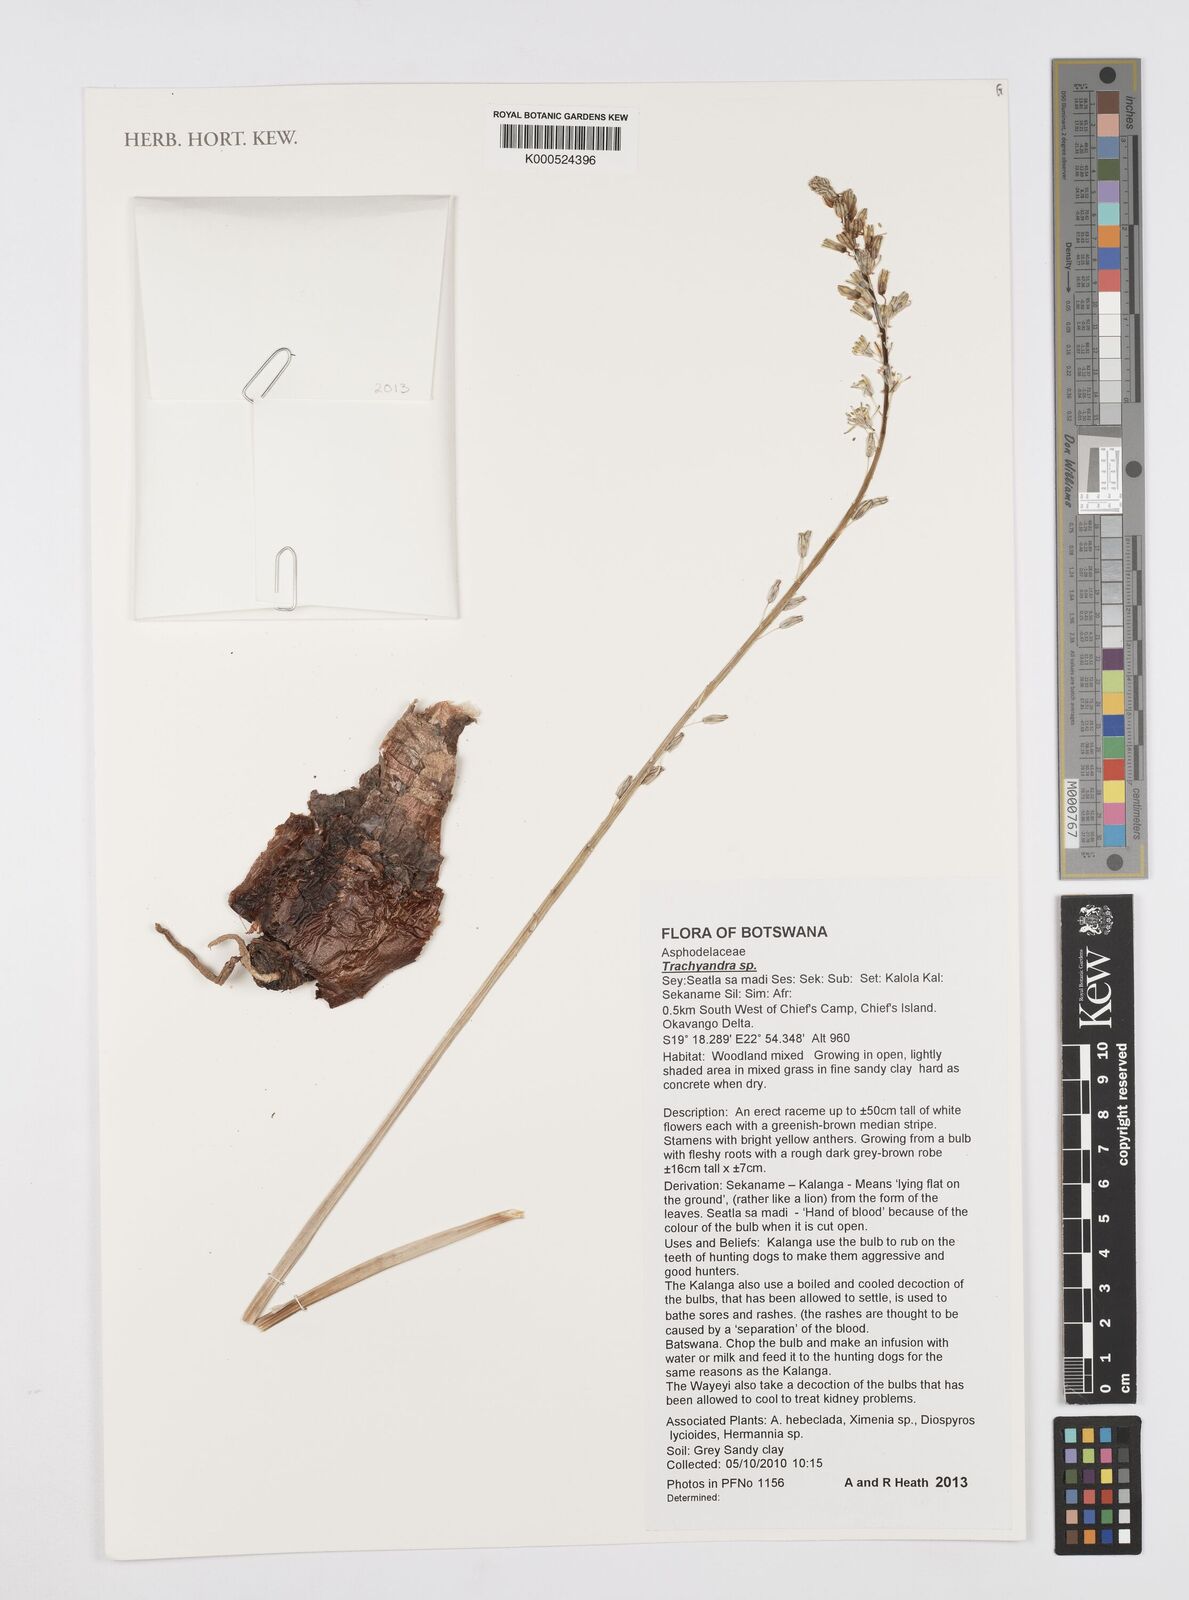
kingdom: Plantae
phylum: Tracheophyta
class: Liliopsida
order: Asparagales
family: Asparagaceae
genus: Drimia
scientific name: Drimia
